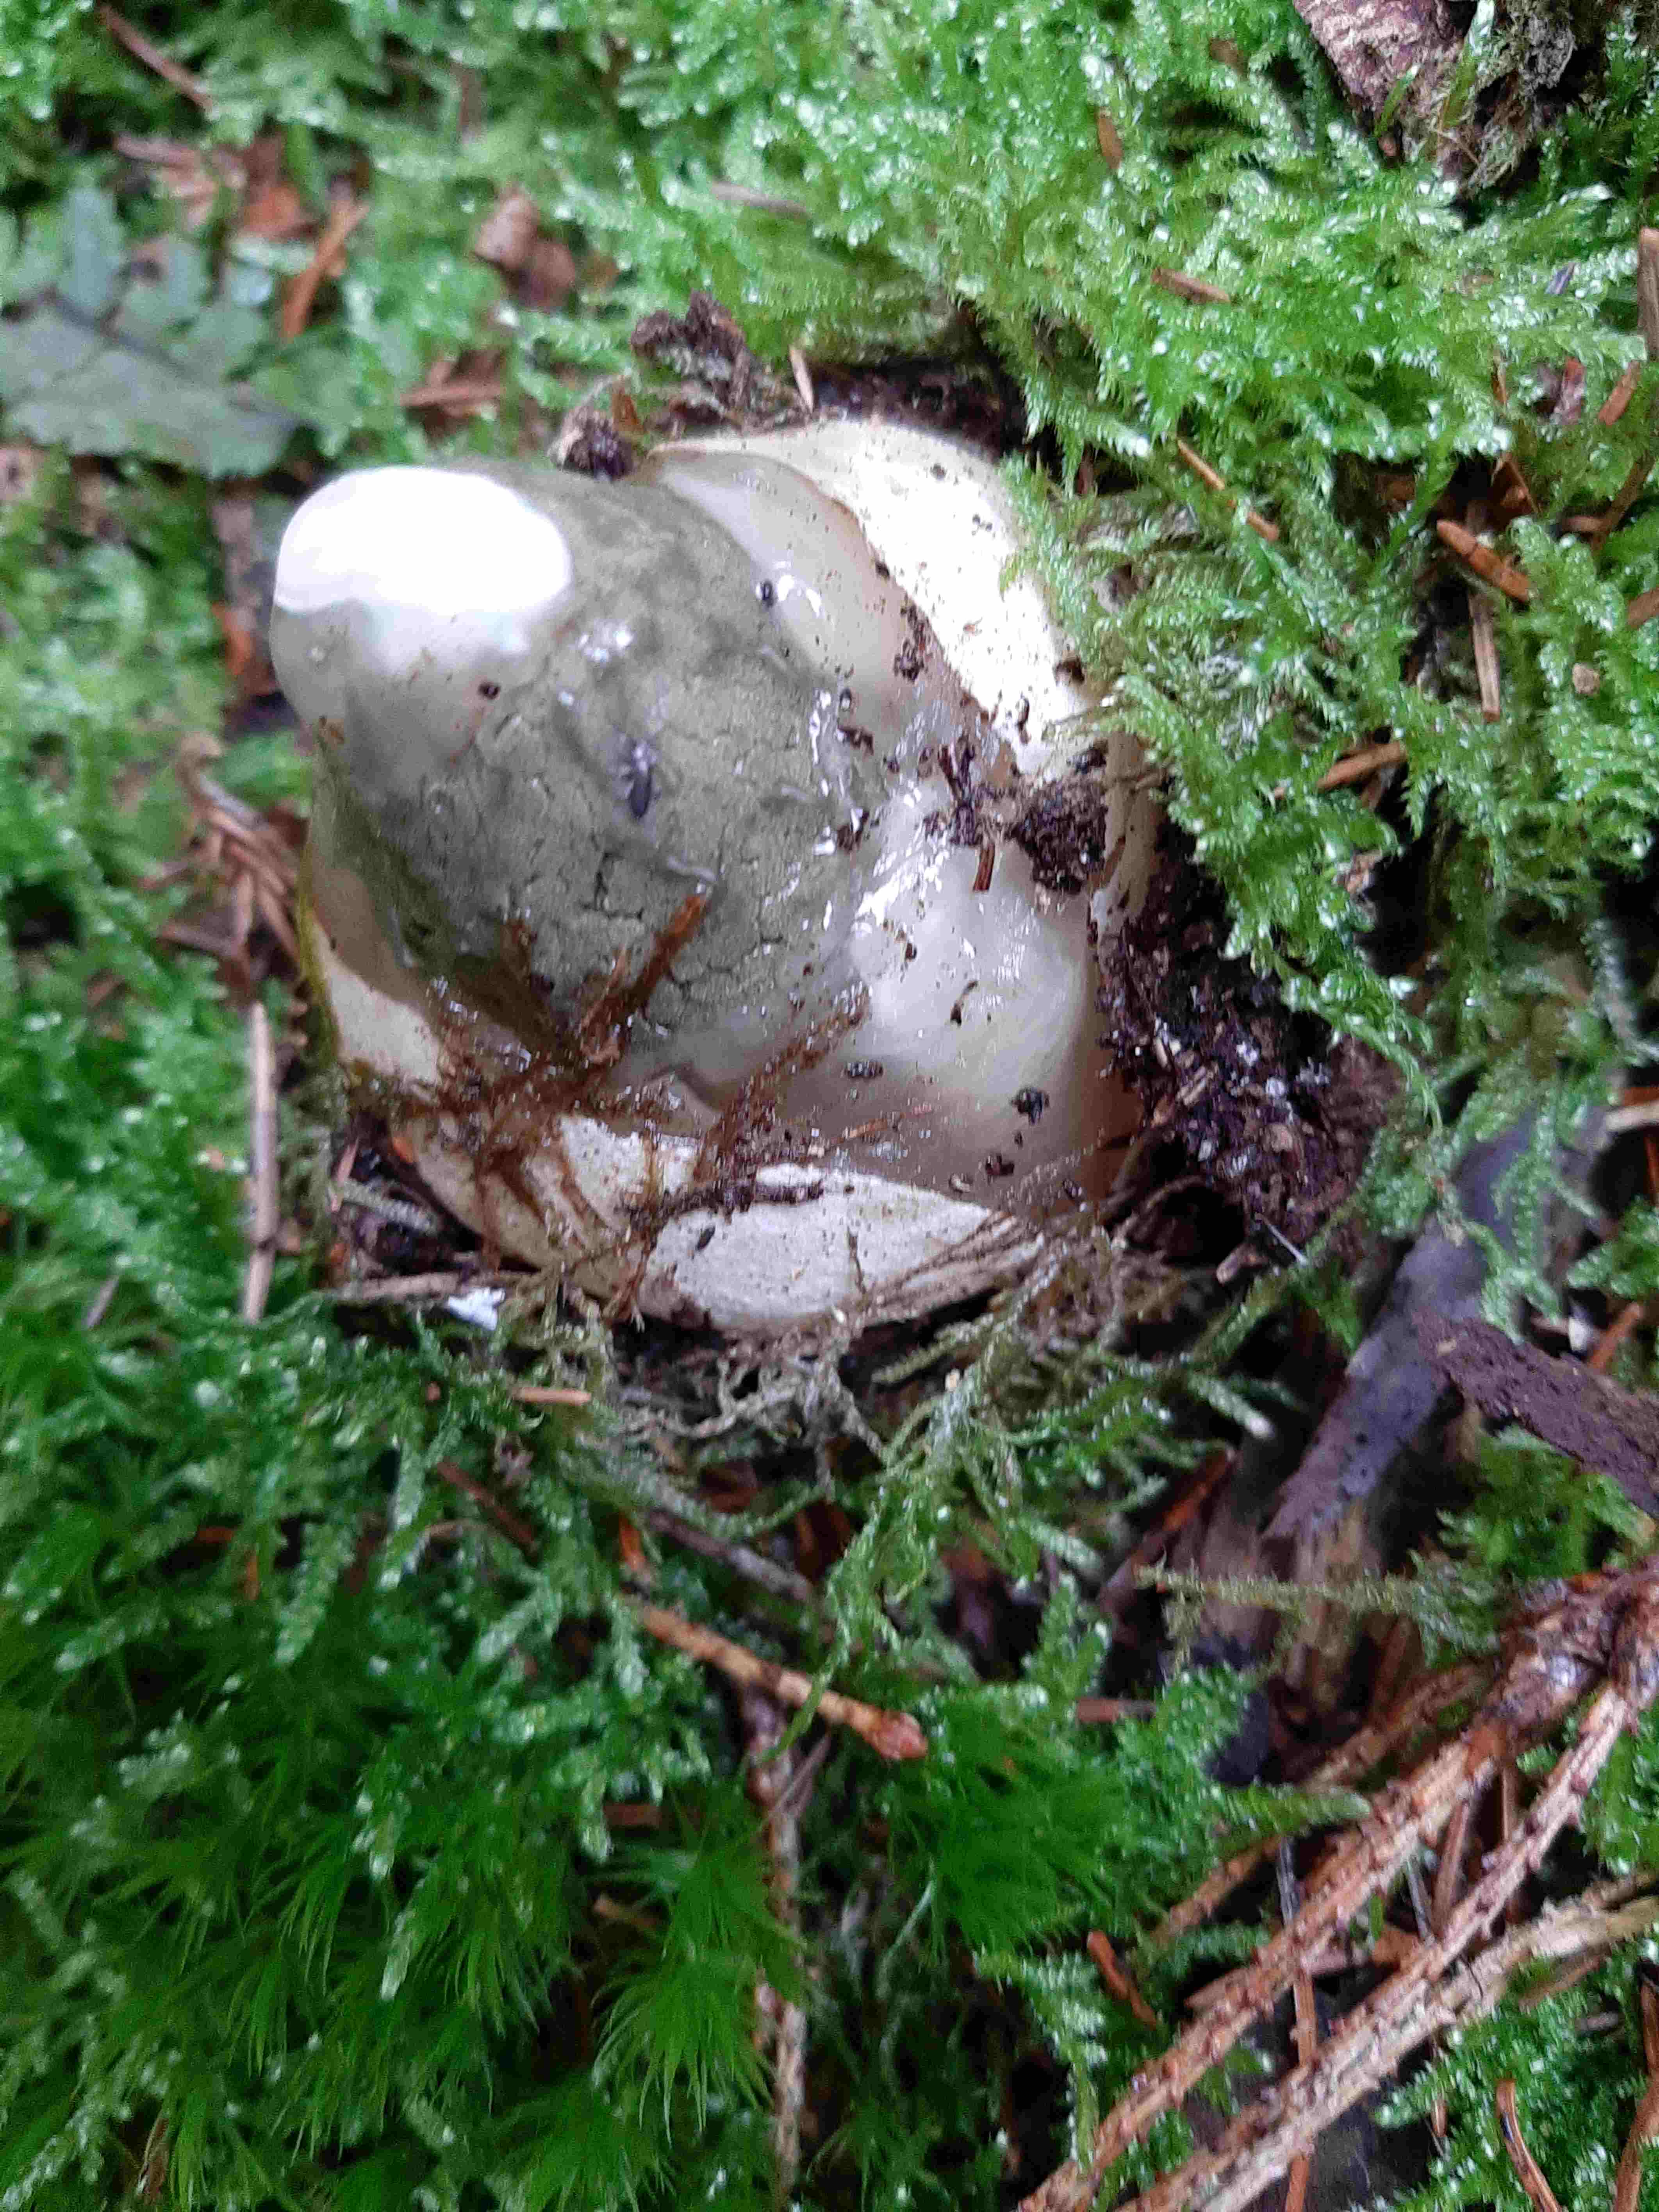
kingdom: Fungi
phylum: Basidiomycota
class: Agaricomycetes
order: Phallales
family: Phallaceae
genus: Phallus
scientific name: Phallus impudicus
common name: almindelig stinksvamp
